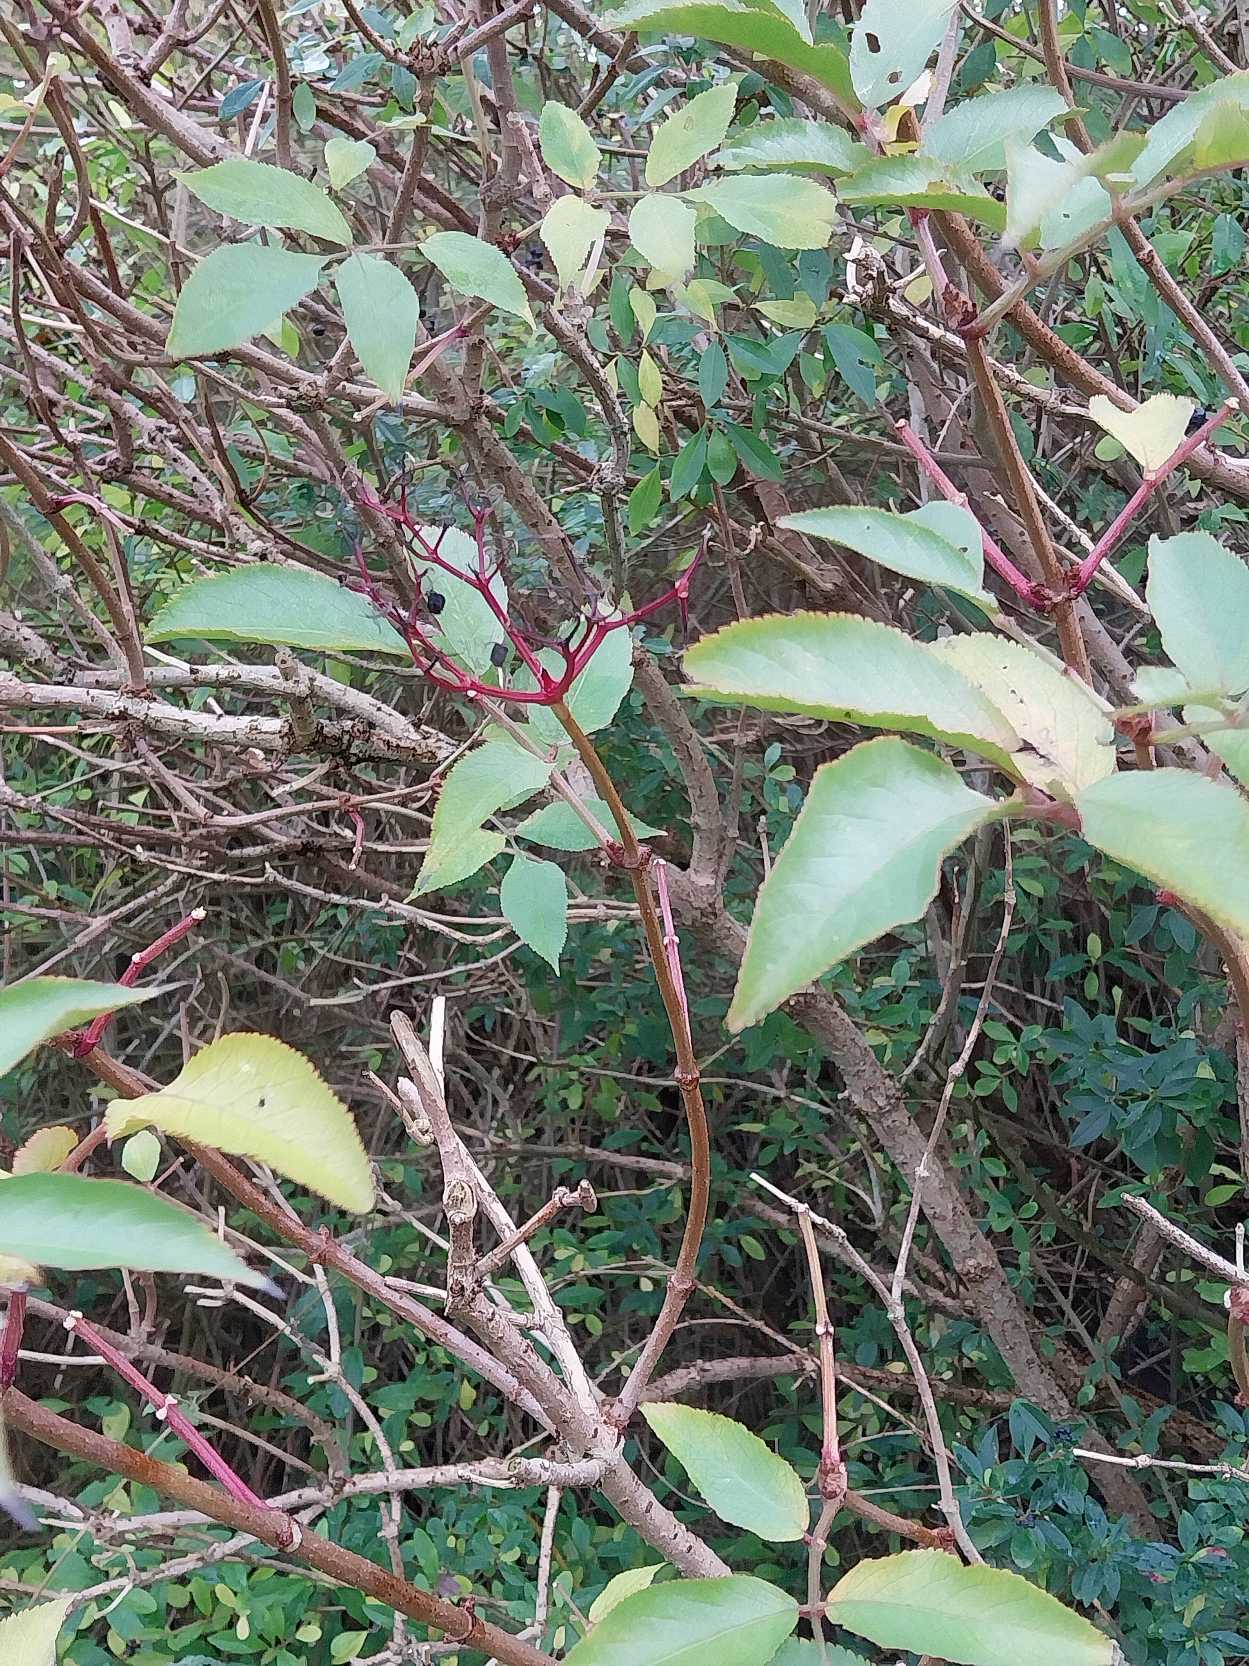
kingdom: Plantae
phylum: Tracheophyta
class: Magnoliopsida
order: Dipsacales
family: Viburnaceae
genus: Sambucus
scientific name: Sambucus nigra
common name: Almindelig hyld
